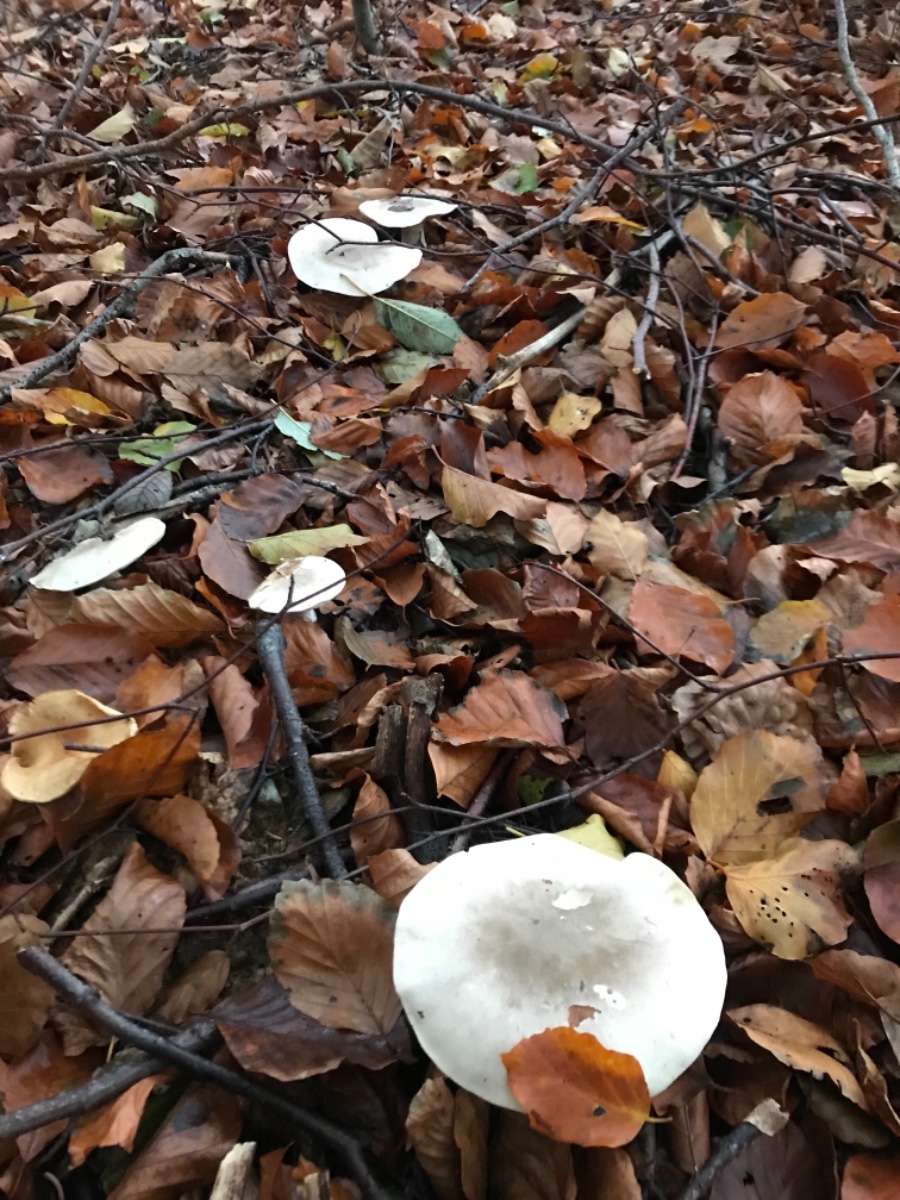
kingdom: Fungi
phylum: Basidiomycota
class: Agaricomycetes
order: Agaricales
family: Tricholomataceae
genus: Clitocybe
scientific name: Clitocybe nebularis
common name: tåge-tragthat
